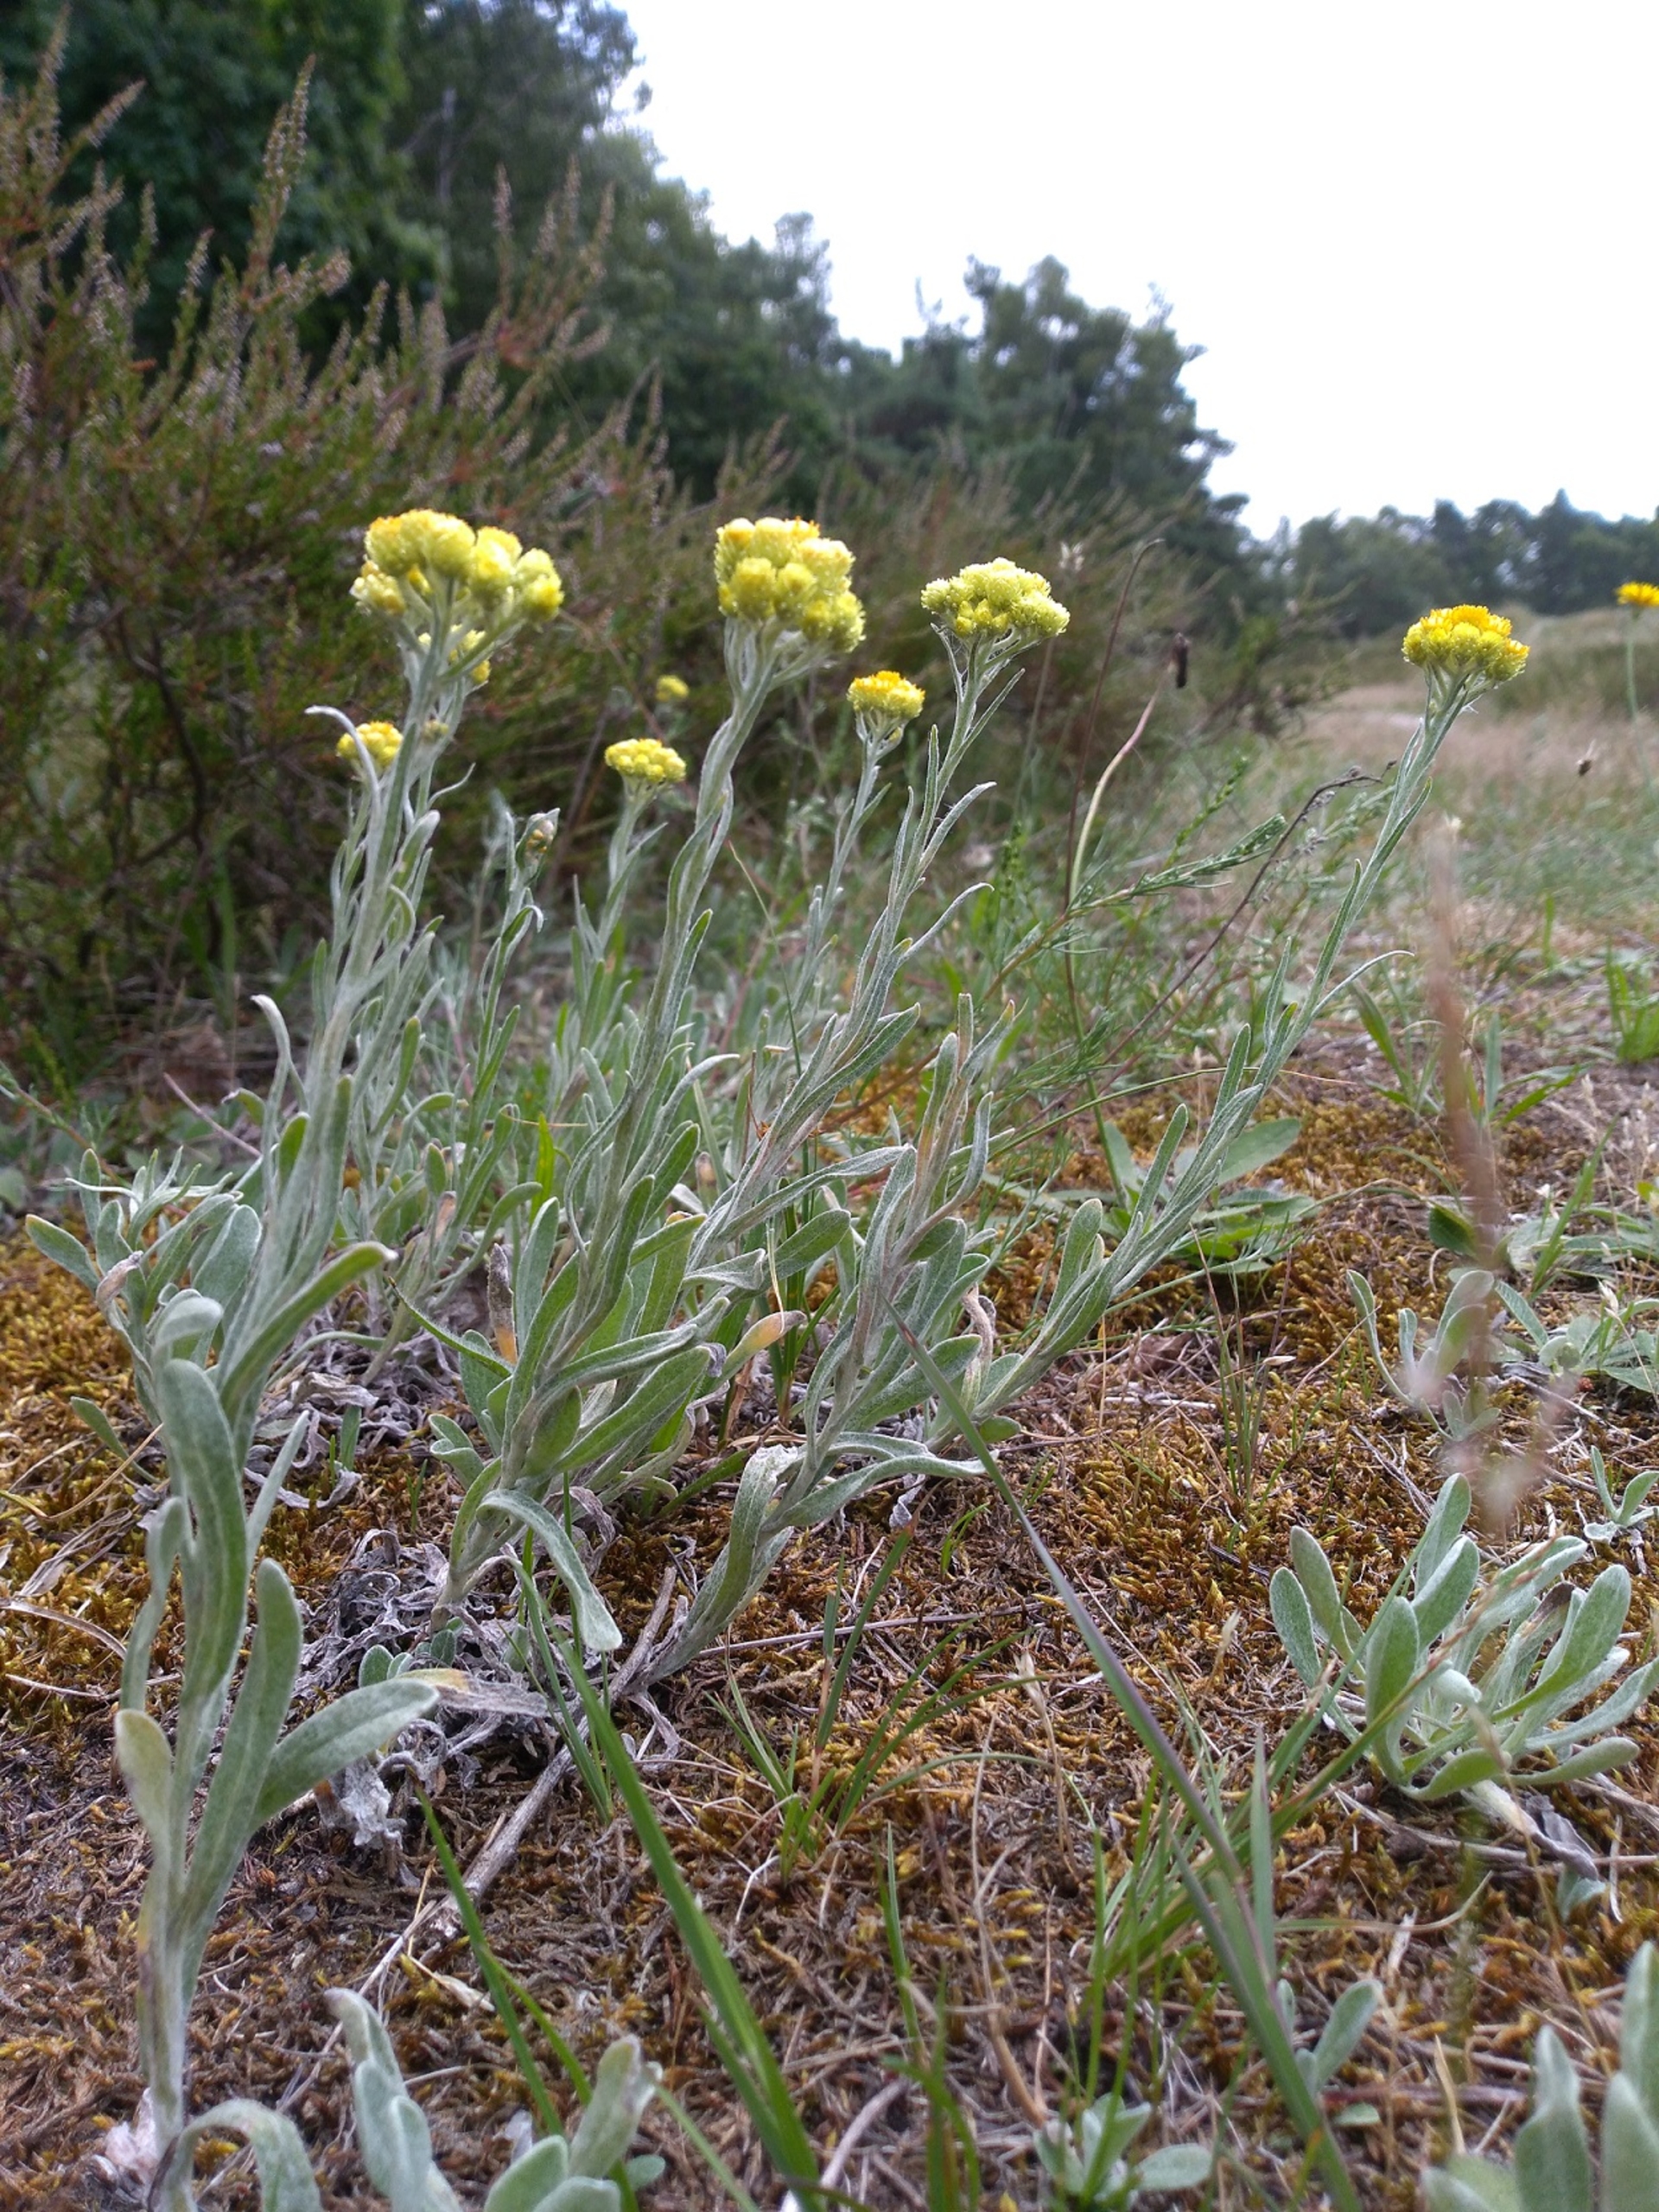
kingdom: Plantae
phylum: Tracheophyta
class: Magnoliopsida
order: Asterales
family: Asteraceae
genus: Helichrysum
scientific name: Helichrysum arenarium
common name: Gul evighedsblomst
